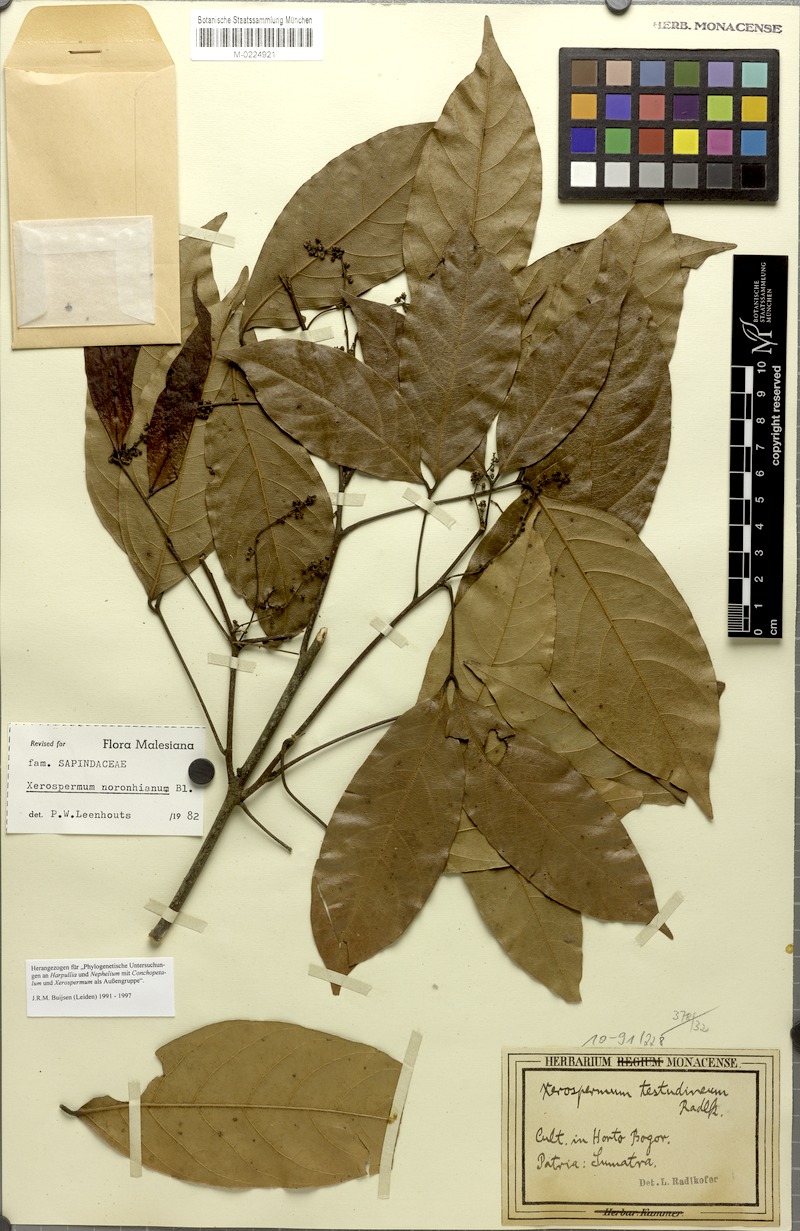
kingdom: Plantae
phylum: Tracheophyta
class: Magnoliopsida
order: Sapindales
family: Sapindaceae
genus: Xerospermum
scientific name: Xerospermum noronhianum
